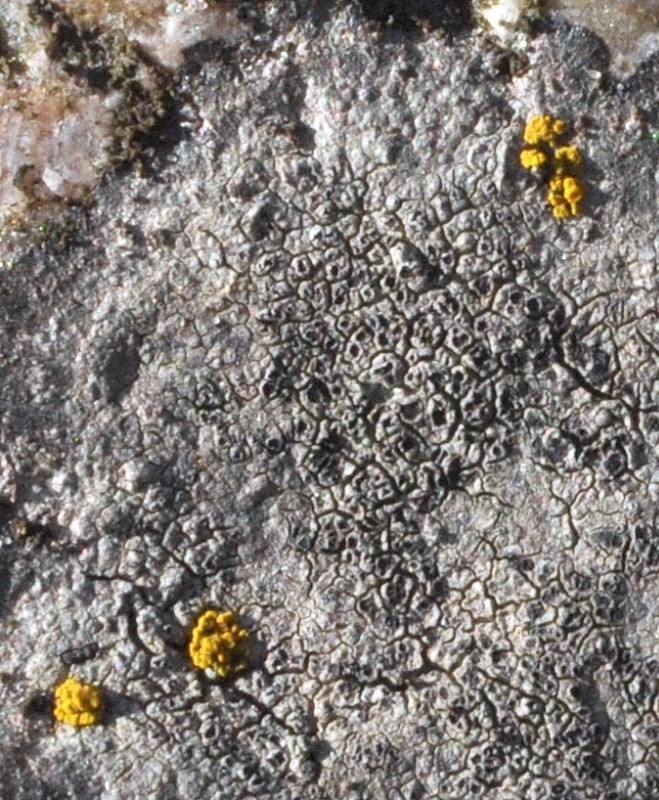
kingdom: Fungi
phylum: Ascomycota
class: Lecanoromycetes
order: Pertusariales
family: Megasporaceae
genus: Circinaria
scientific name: Circinaria caesiocinerea
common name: fuglestens-hulskivelav
